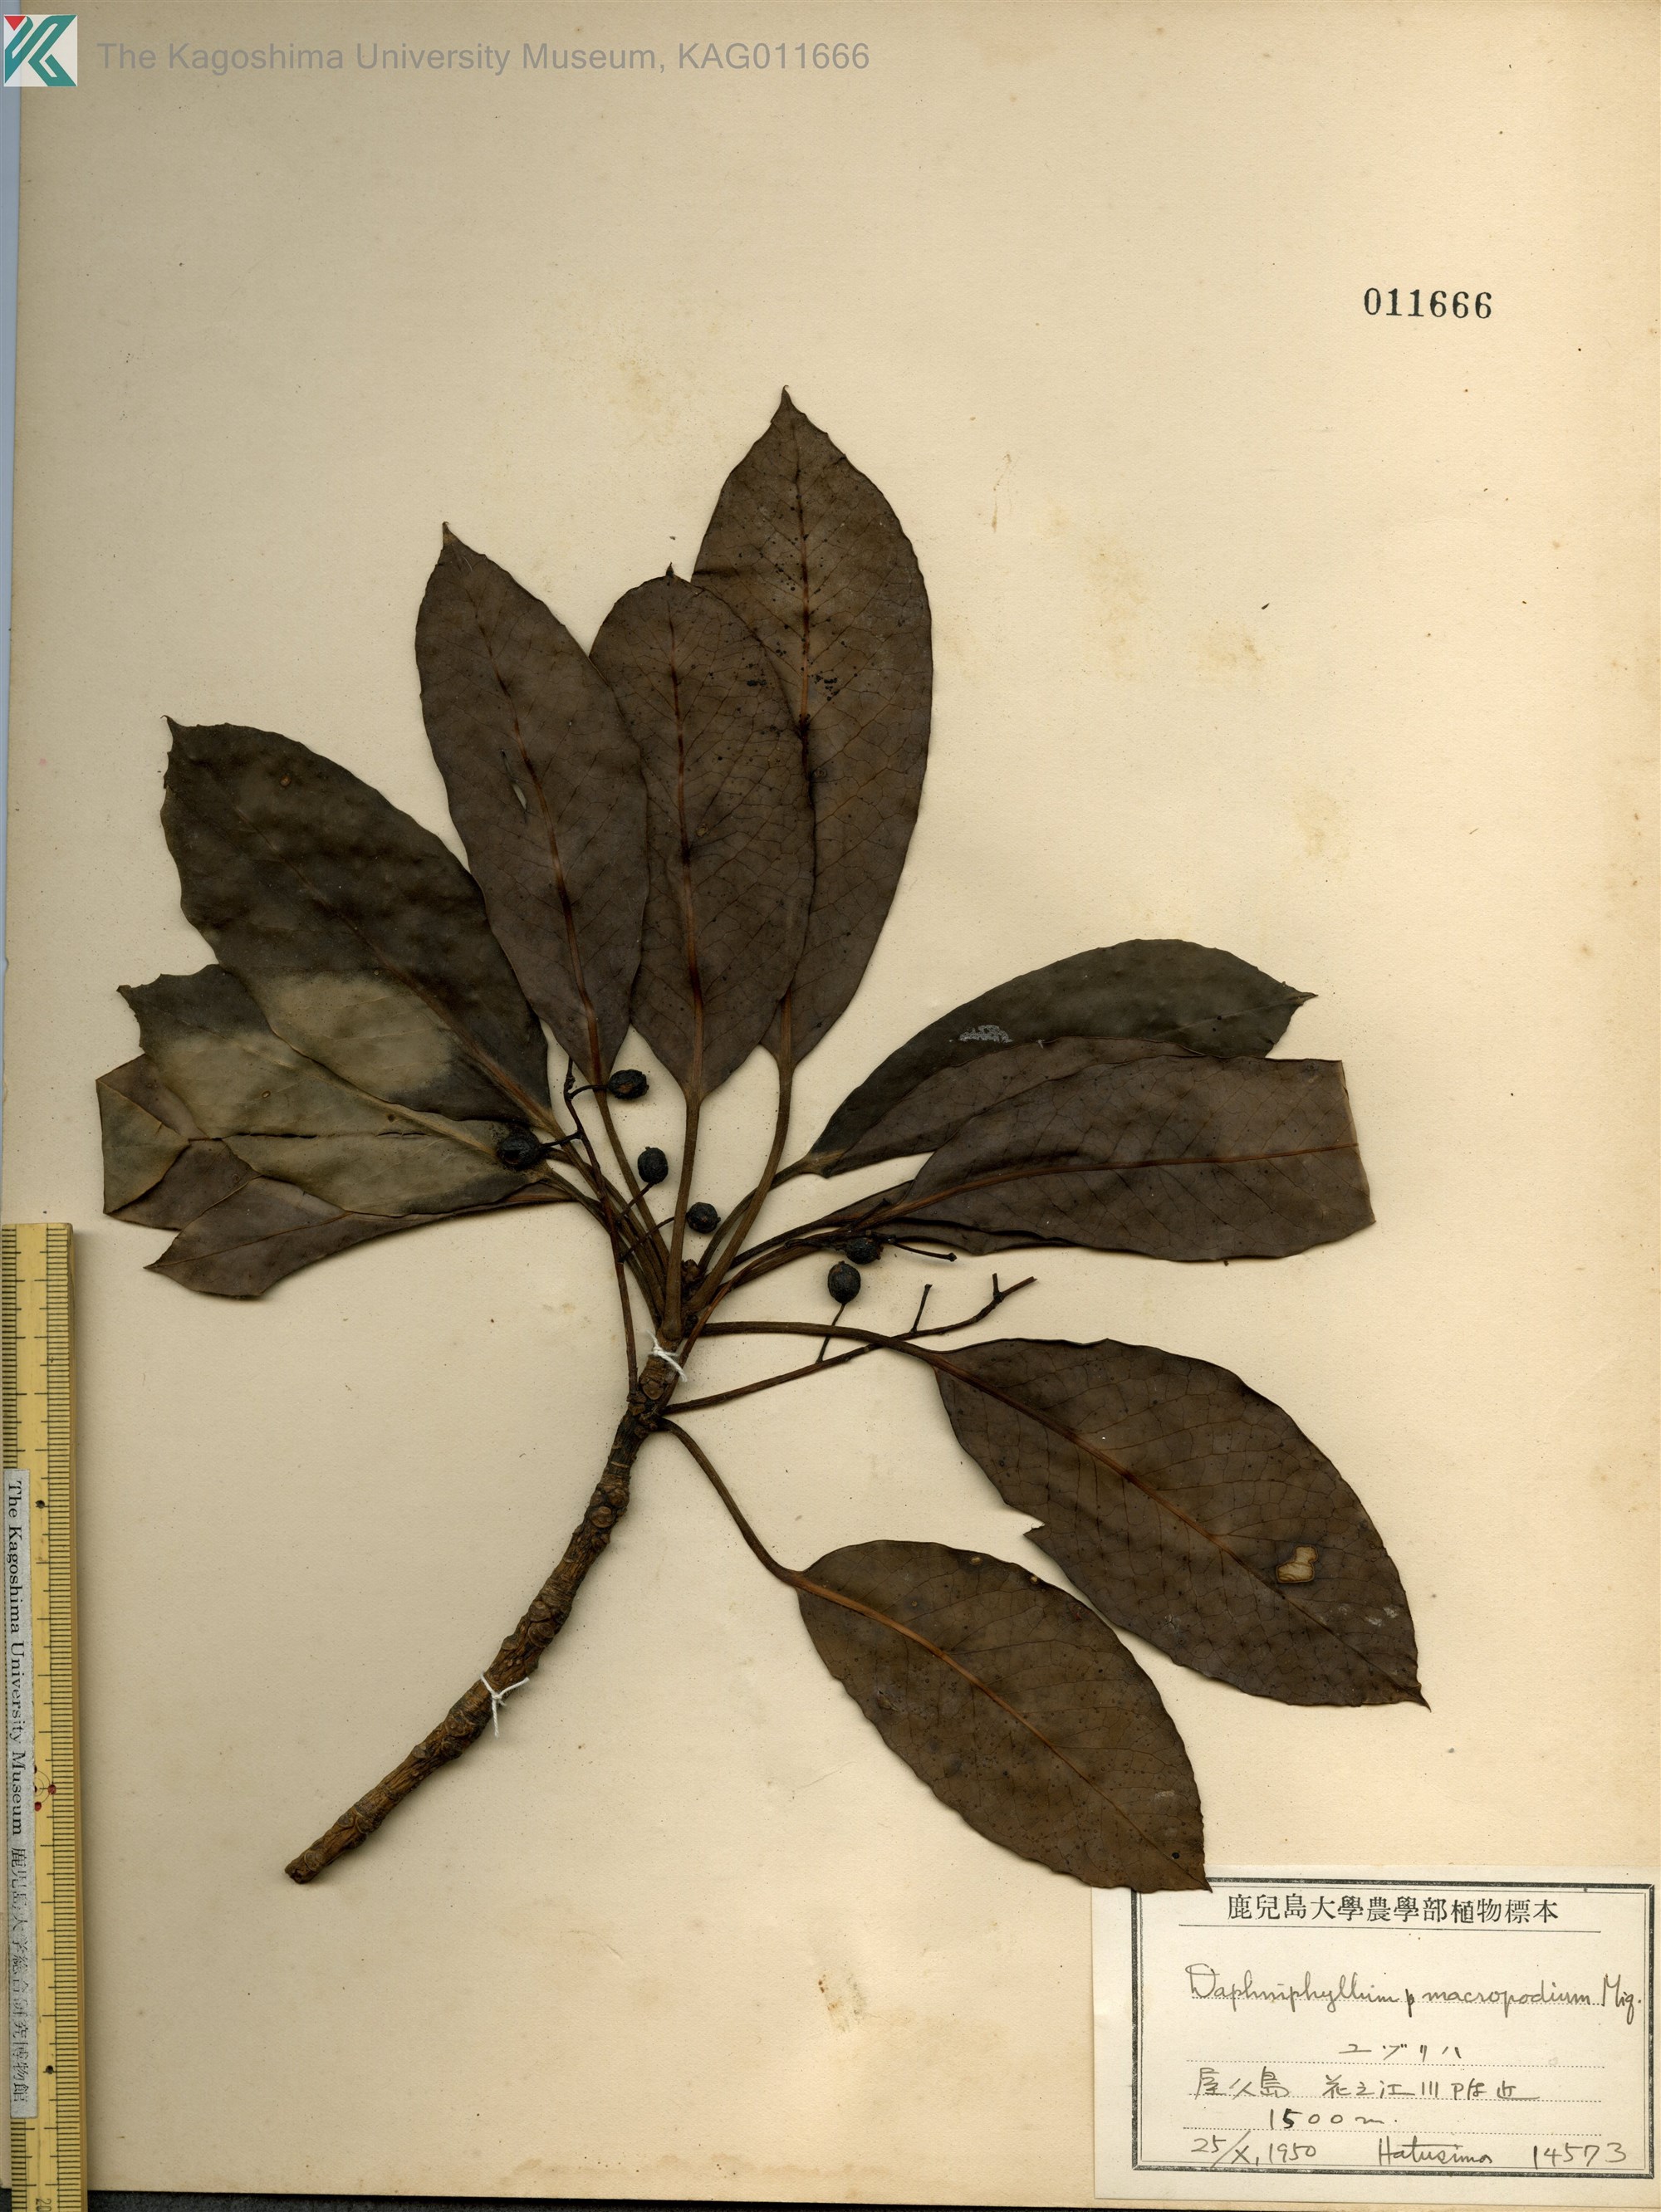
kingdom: Plantae
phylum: Tracheophyta
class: Magnoliopsida
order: Saxifragales
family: Daphniphyllaceae
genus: Daphniphyllum
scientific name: Daphniphyllum macropodum
